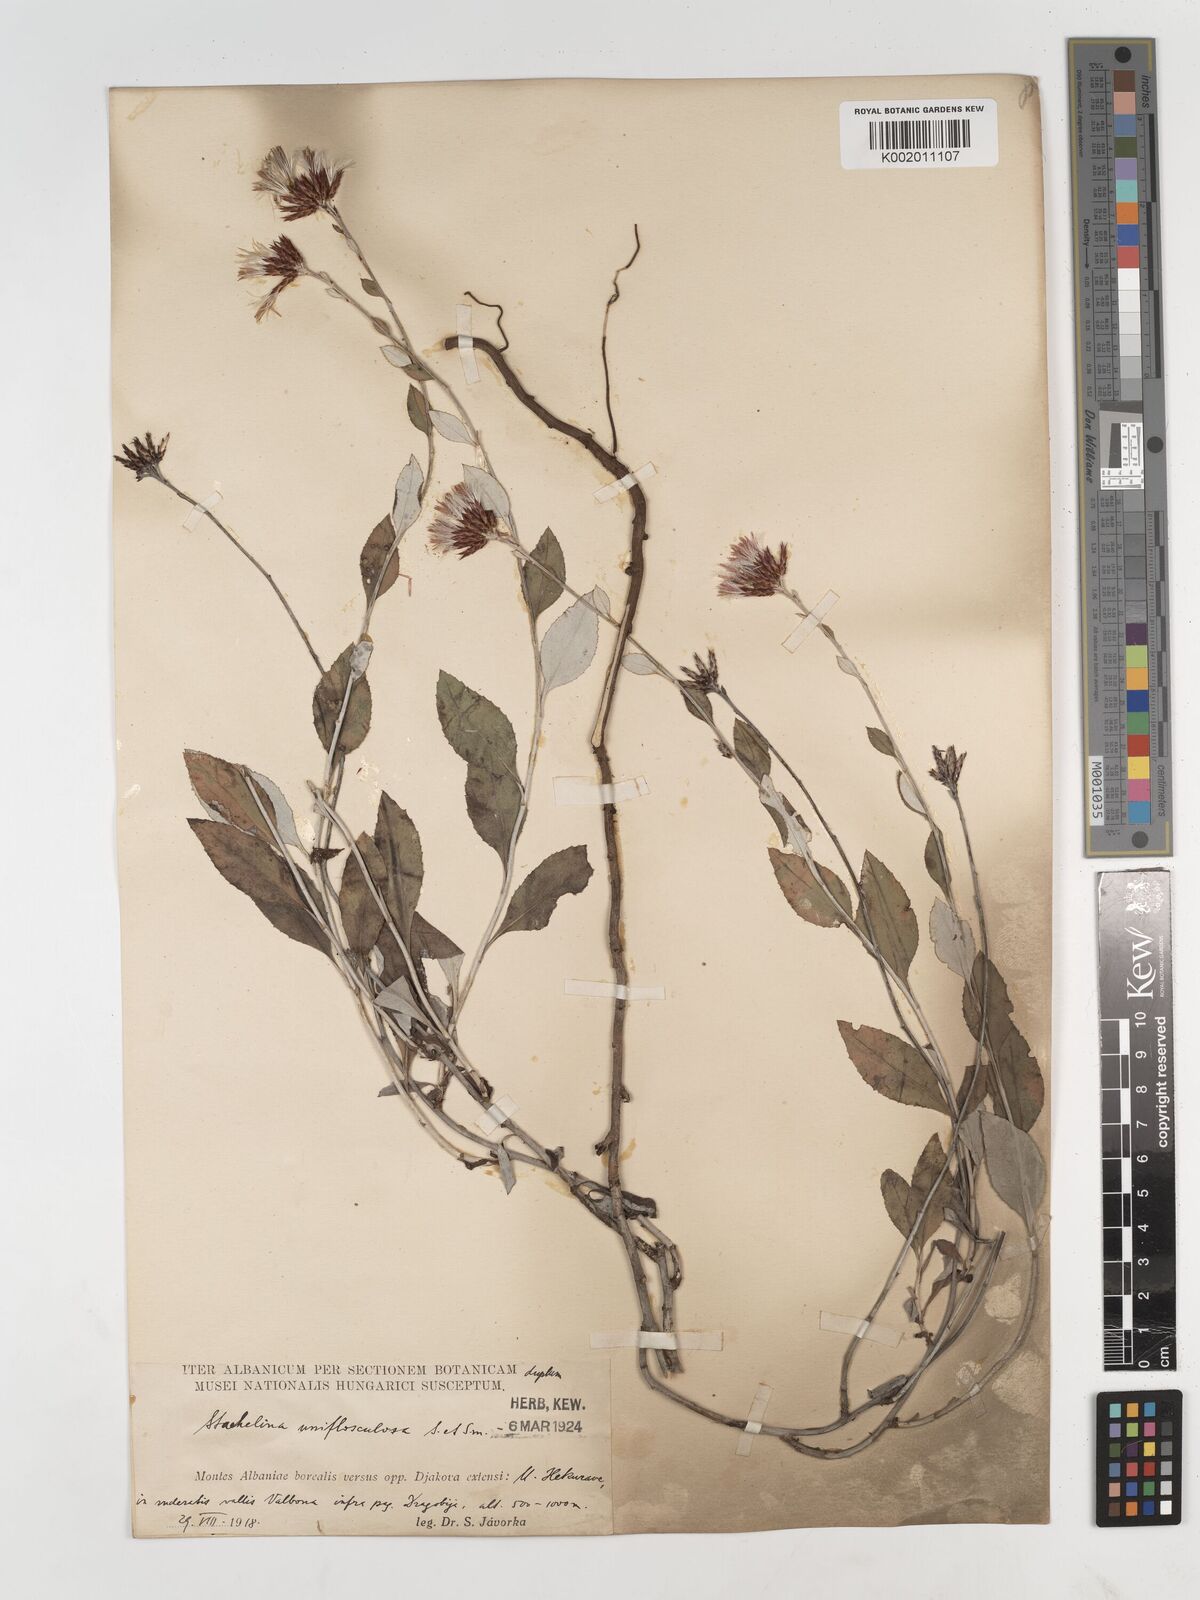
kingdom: Plantae
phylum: Tracheophyta
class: Magnoliopsida
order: Asterales
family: Asteraceae
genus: Staehelina
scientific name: Staehelina uniflosculosa
